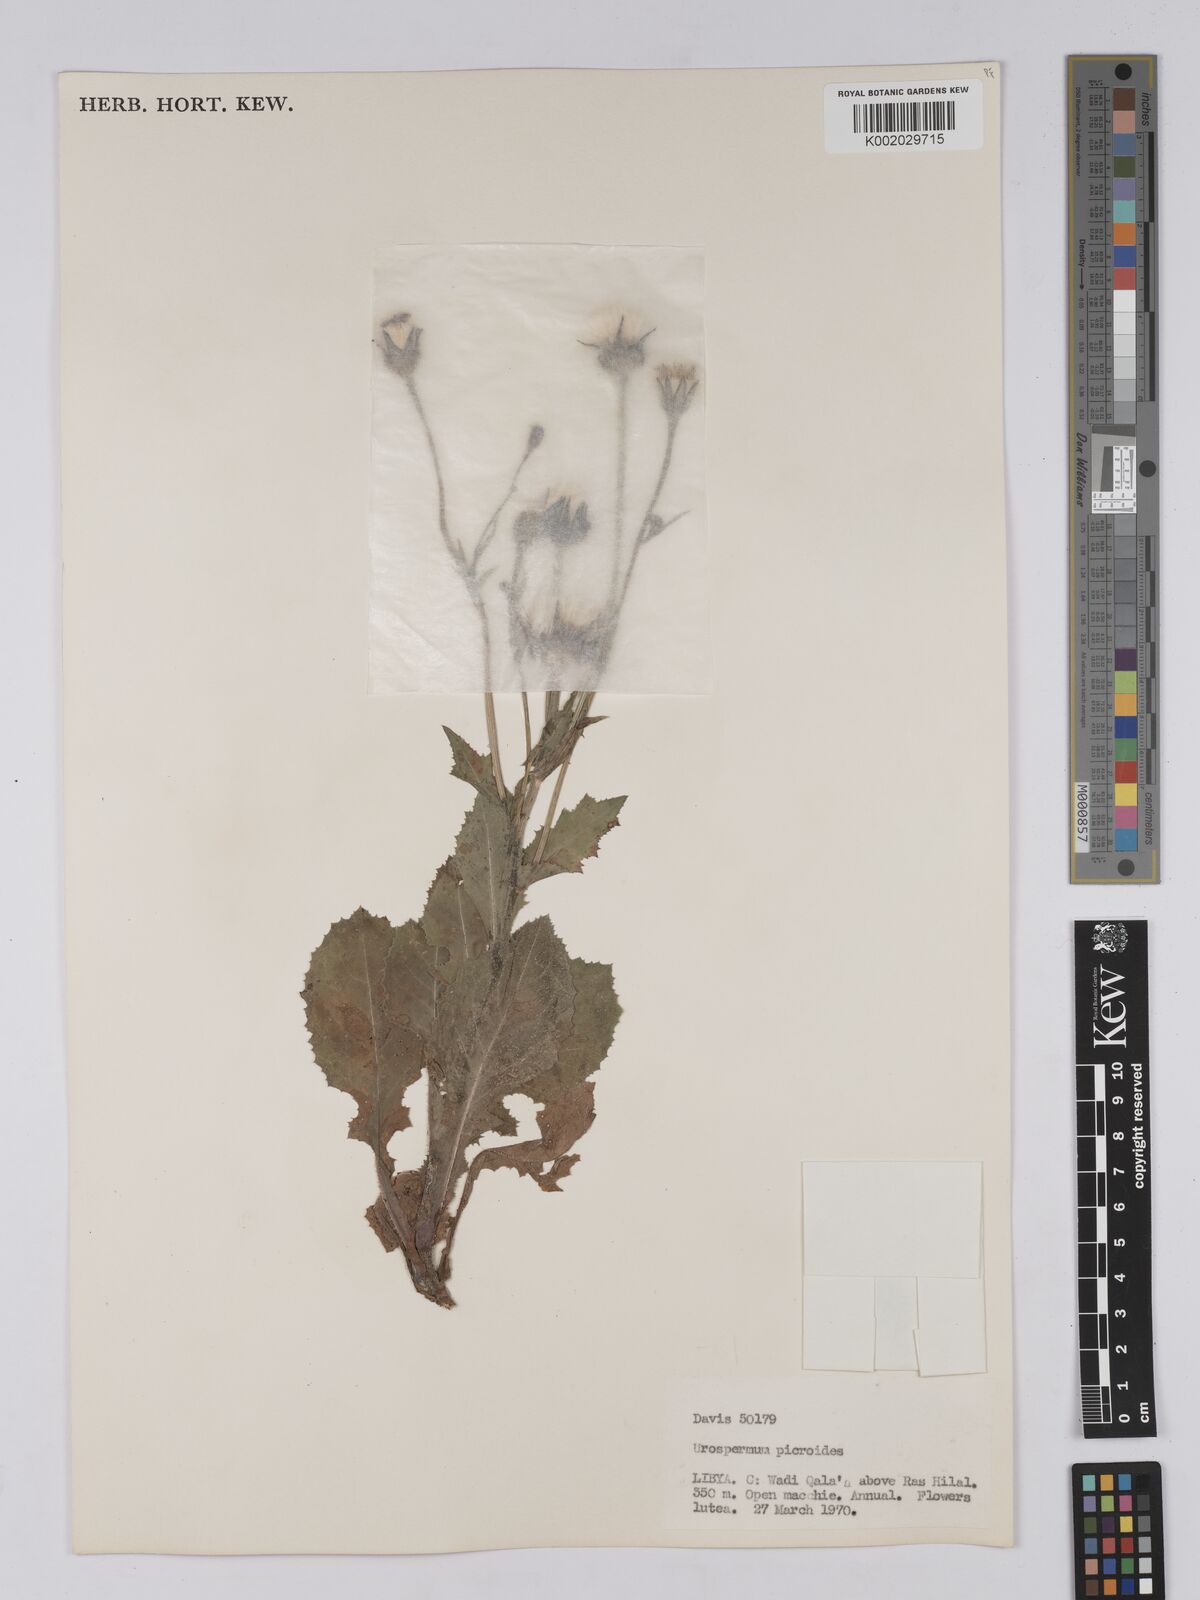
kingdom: Plantae
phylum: Tracheophyta
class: Magnoliopsida
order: Asterales
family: Asteraceae
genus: Urospermum
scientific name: Urospermum picroides
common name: False hawkbit
